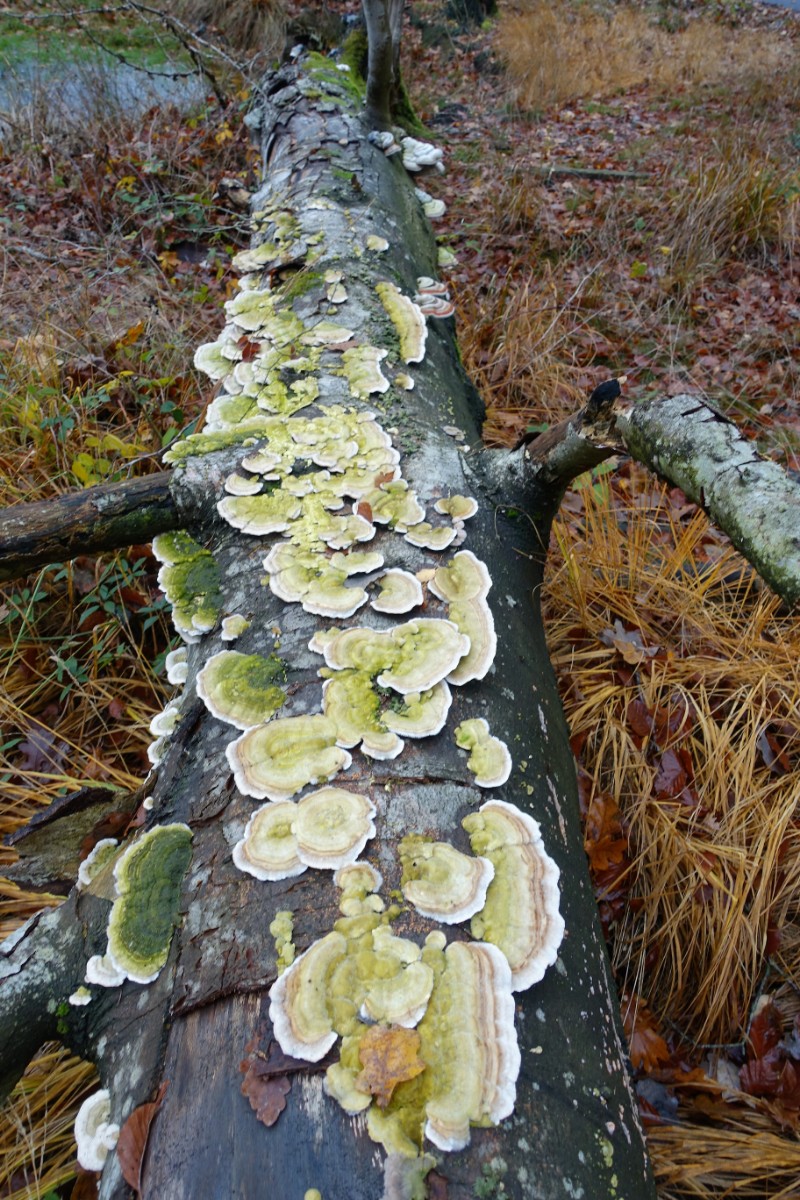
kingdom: Fungi
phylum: Basidiomycota
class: Agaricomycetes
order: Polyporales
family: Polyporaceae
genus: Trametes
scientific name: Trametes hirsuta
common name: håret læderporesvamp
